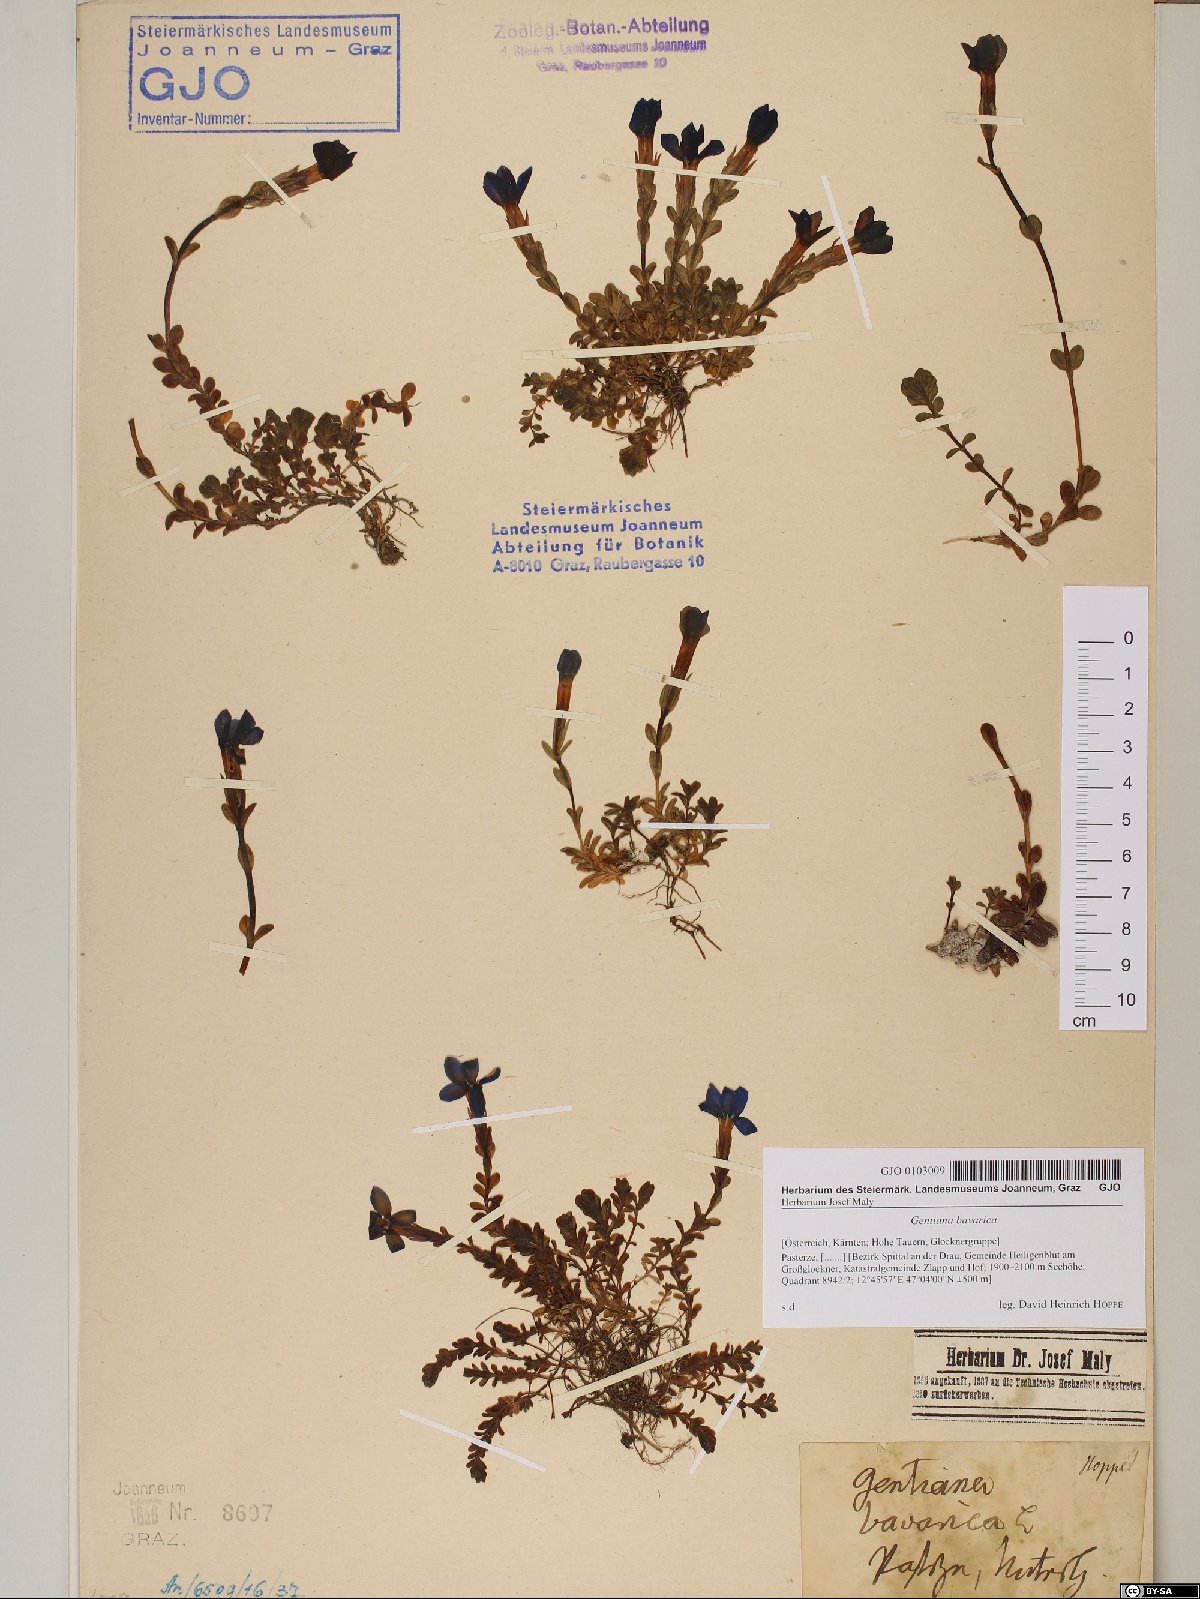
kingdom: Plantae
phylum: Tracheophyta
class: Magnoliopsida
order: Gentianales
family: Gentianaceae
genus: Gentiana
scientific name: Gentiana bavarica
